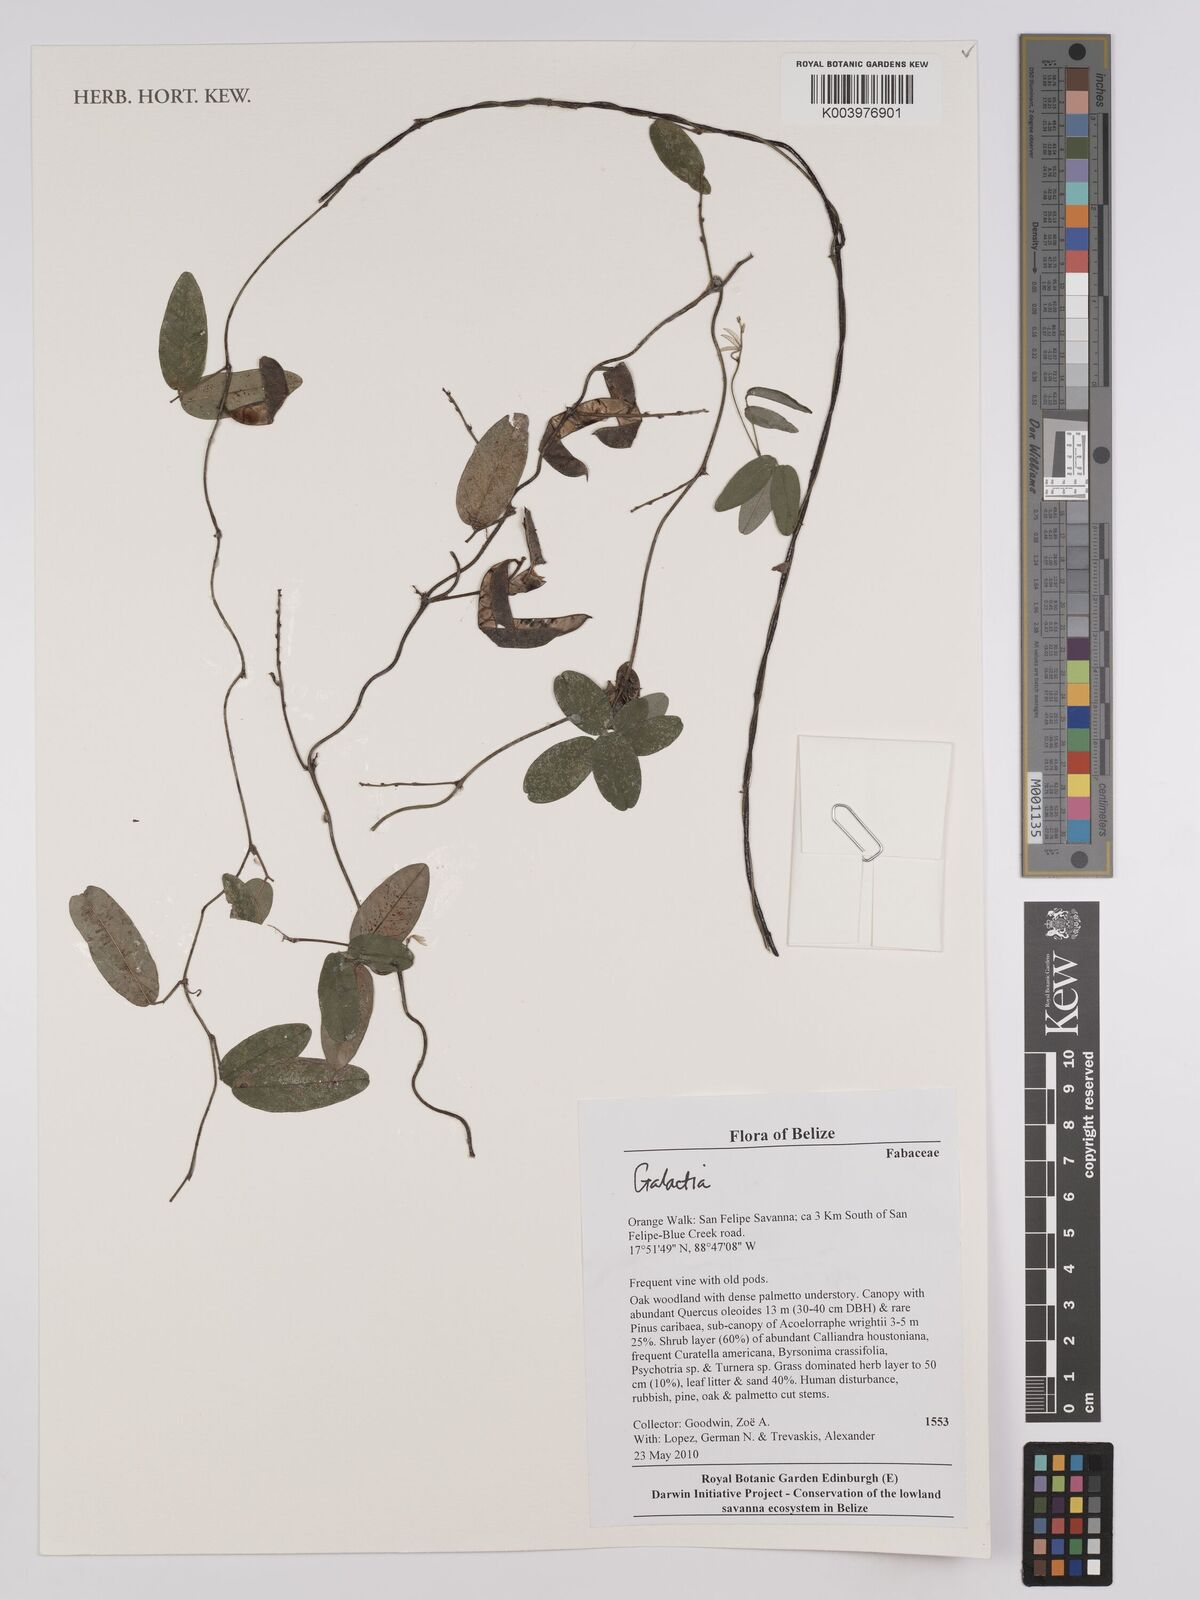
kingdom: Plantae
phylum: Tracheophyta
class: Magnoliopsida
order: Fabales
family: Fabaceae
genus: Galactia
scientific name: Galactia
